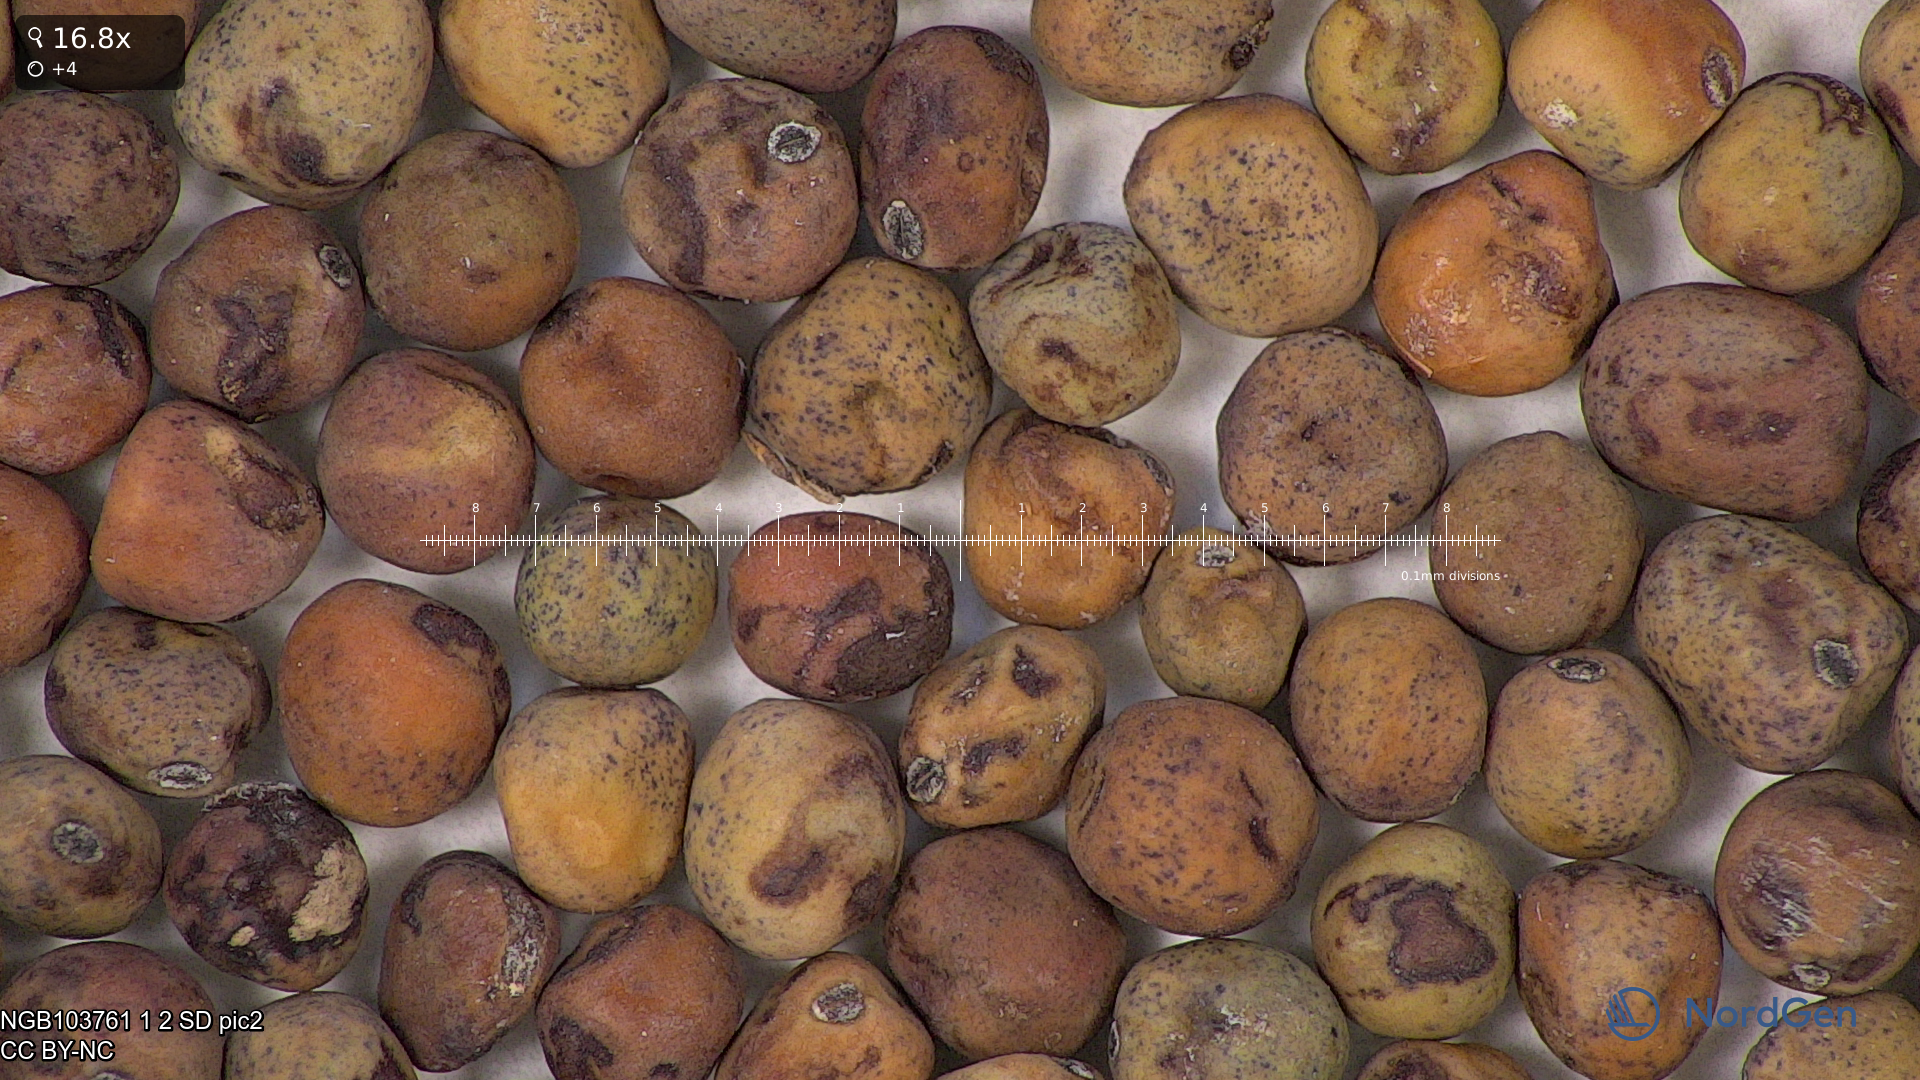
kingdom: Plantae
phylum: Tracheophyta
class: Magnoliopsida
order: Fabales
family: Fabaceae
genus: Lathyrus
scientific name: Lathyrus oleraceus
